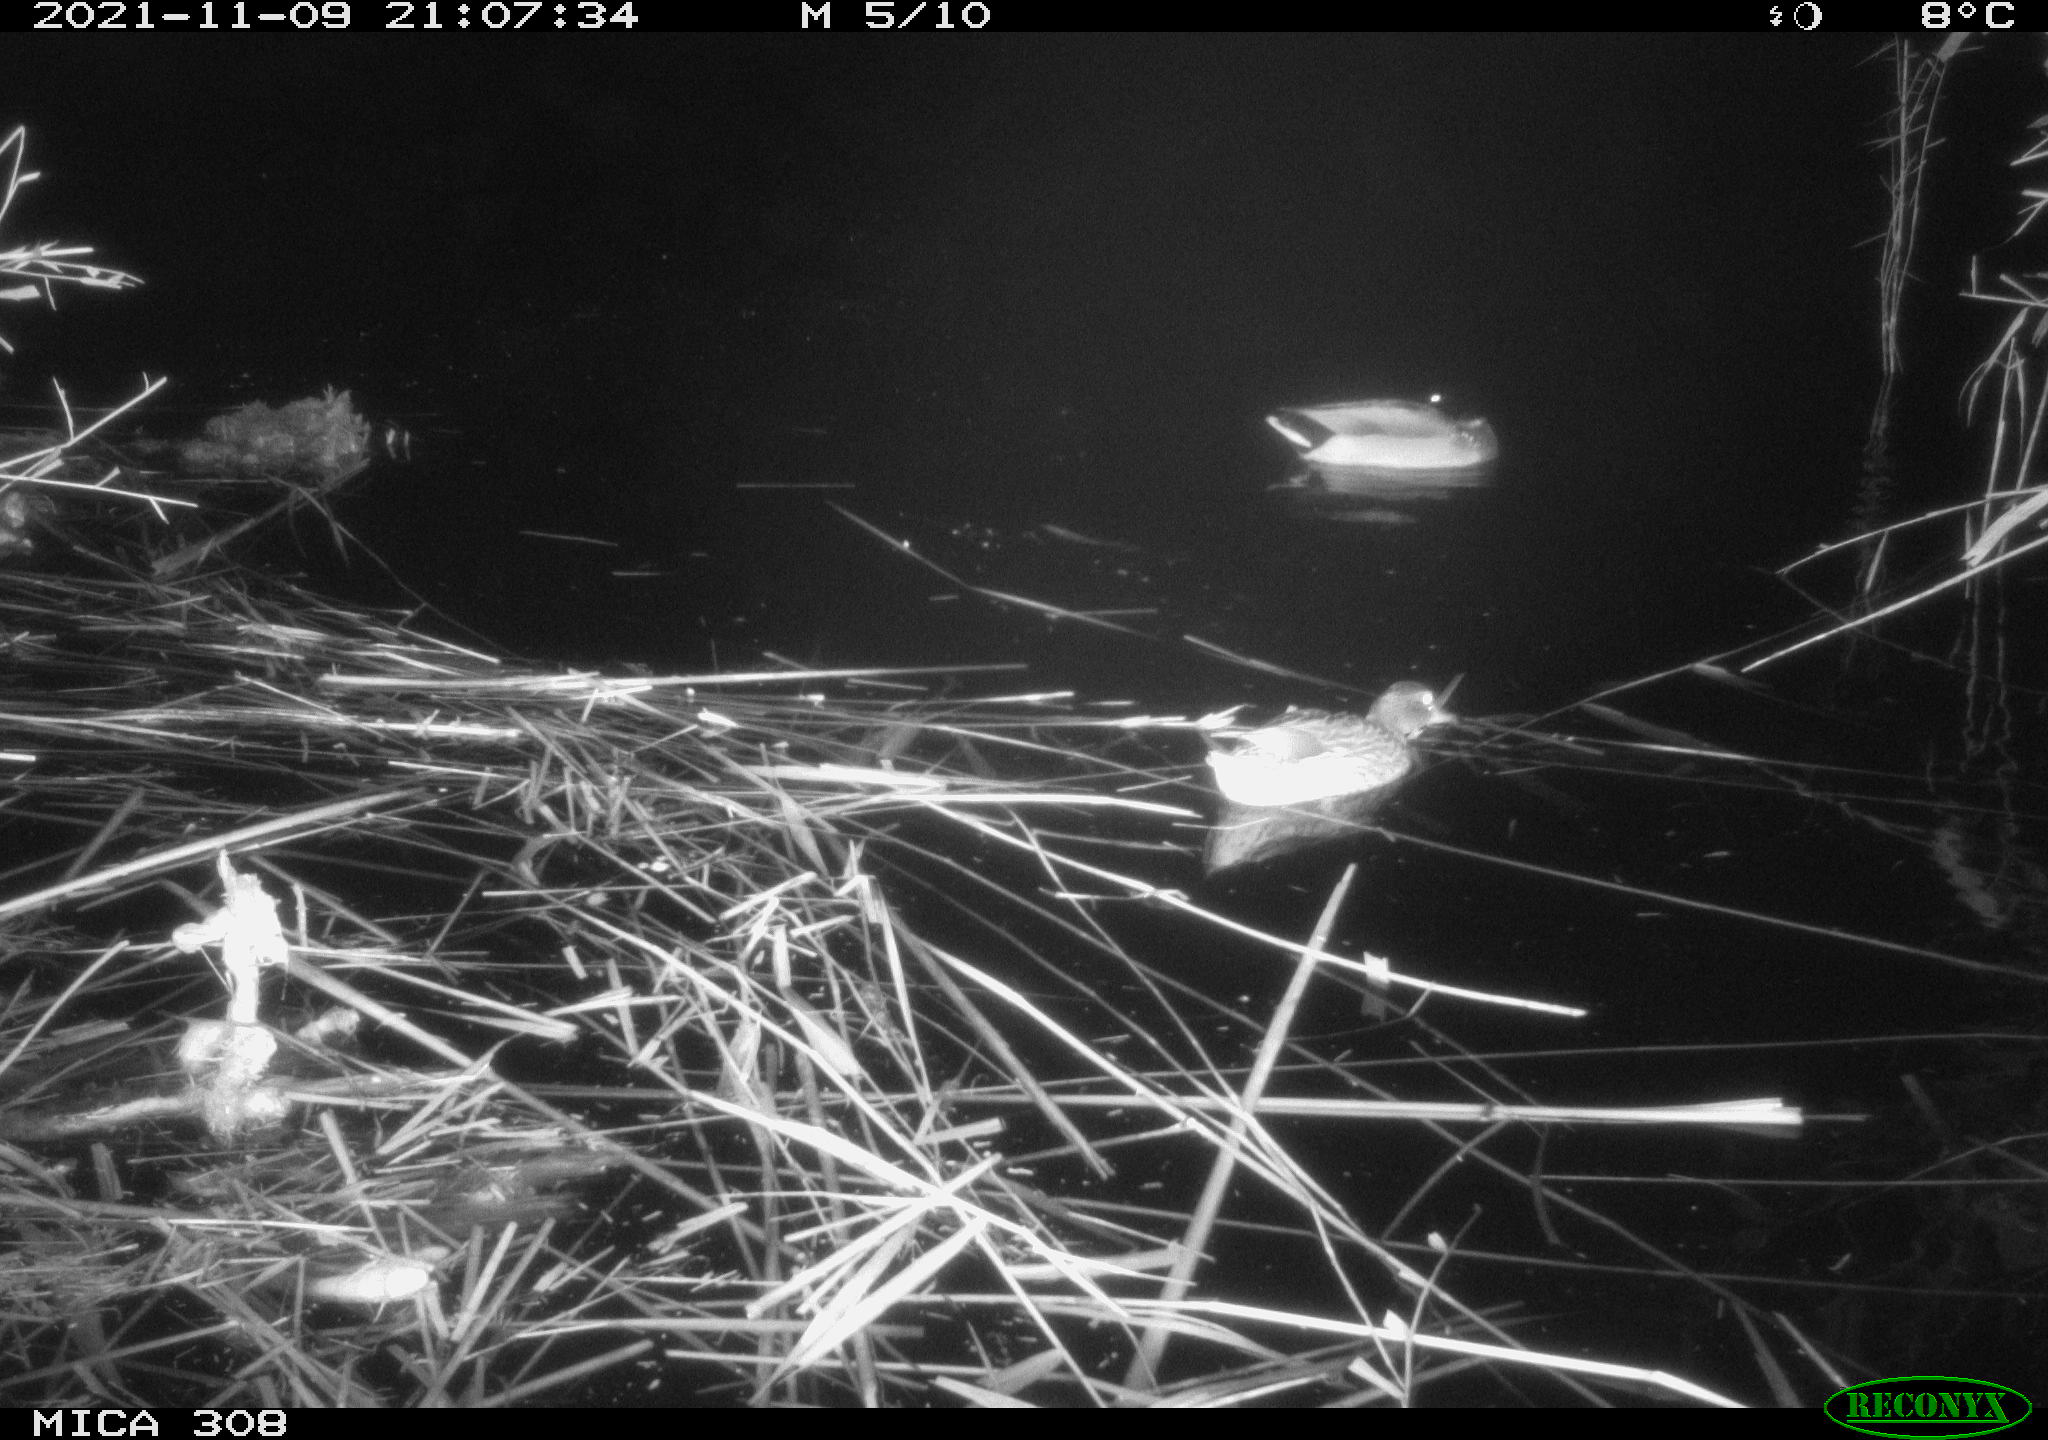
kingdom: Animalia
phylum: Chordata
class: Aves
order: Anseriformes
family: Anatidae
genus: Anas
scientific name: Anas platyrhynchos
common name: Mallard
